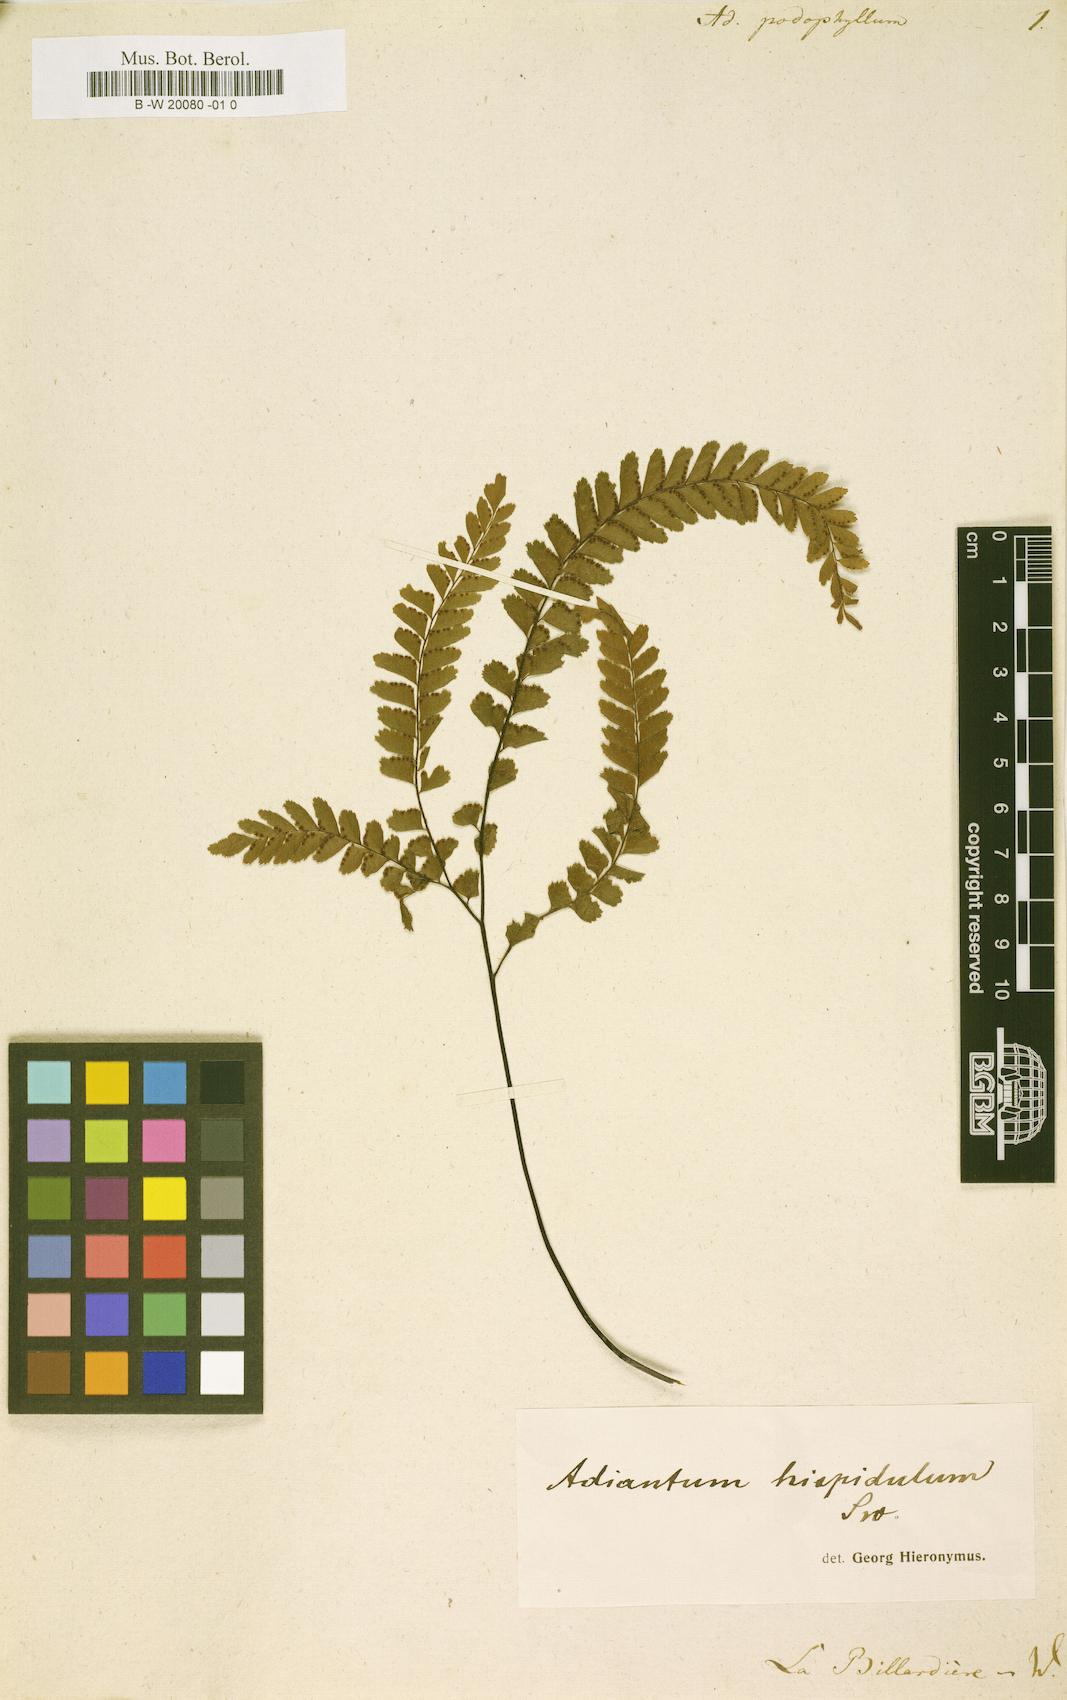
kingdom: Plantae
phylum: Tracheophyta
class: Polypodiopsida
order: Polypodiales
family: Pteridaceae
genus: Adiantum
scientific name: Adiantum
